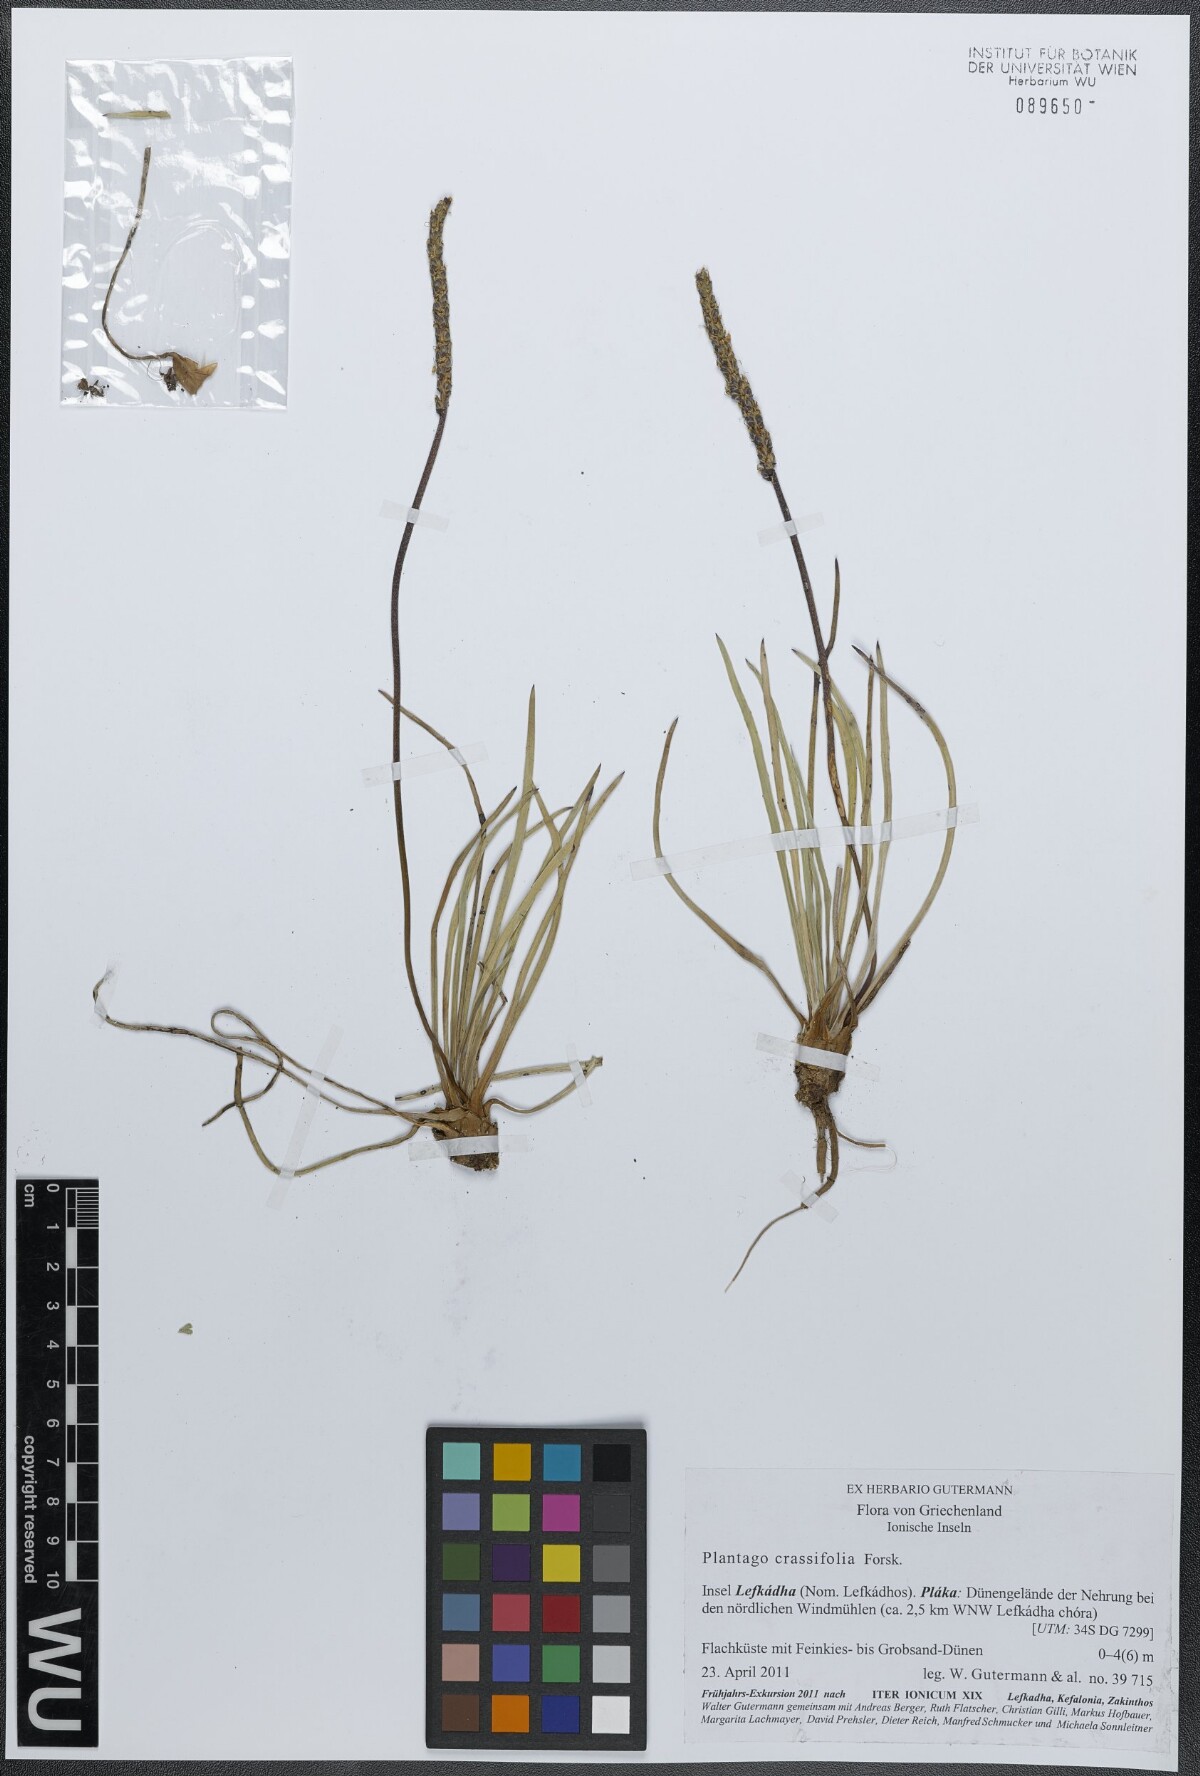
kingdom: Plantae
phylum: Tracheophyta
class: Magnoliopsida
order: Lamiales
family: Plantaginaceae
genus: Plantago
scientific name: Plantago crassifolia
